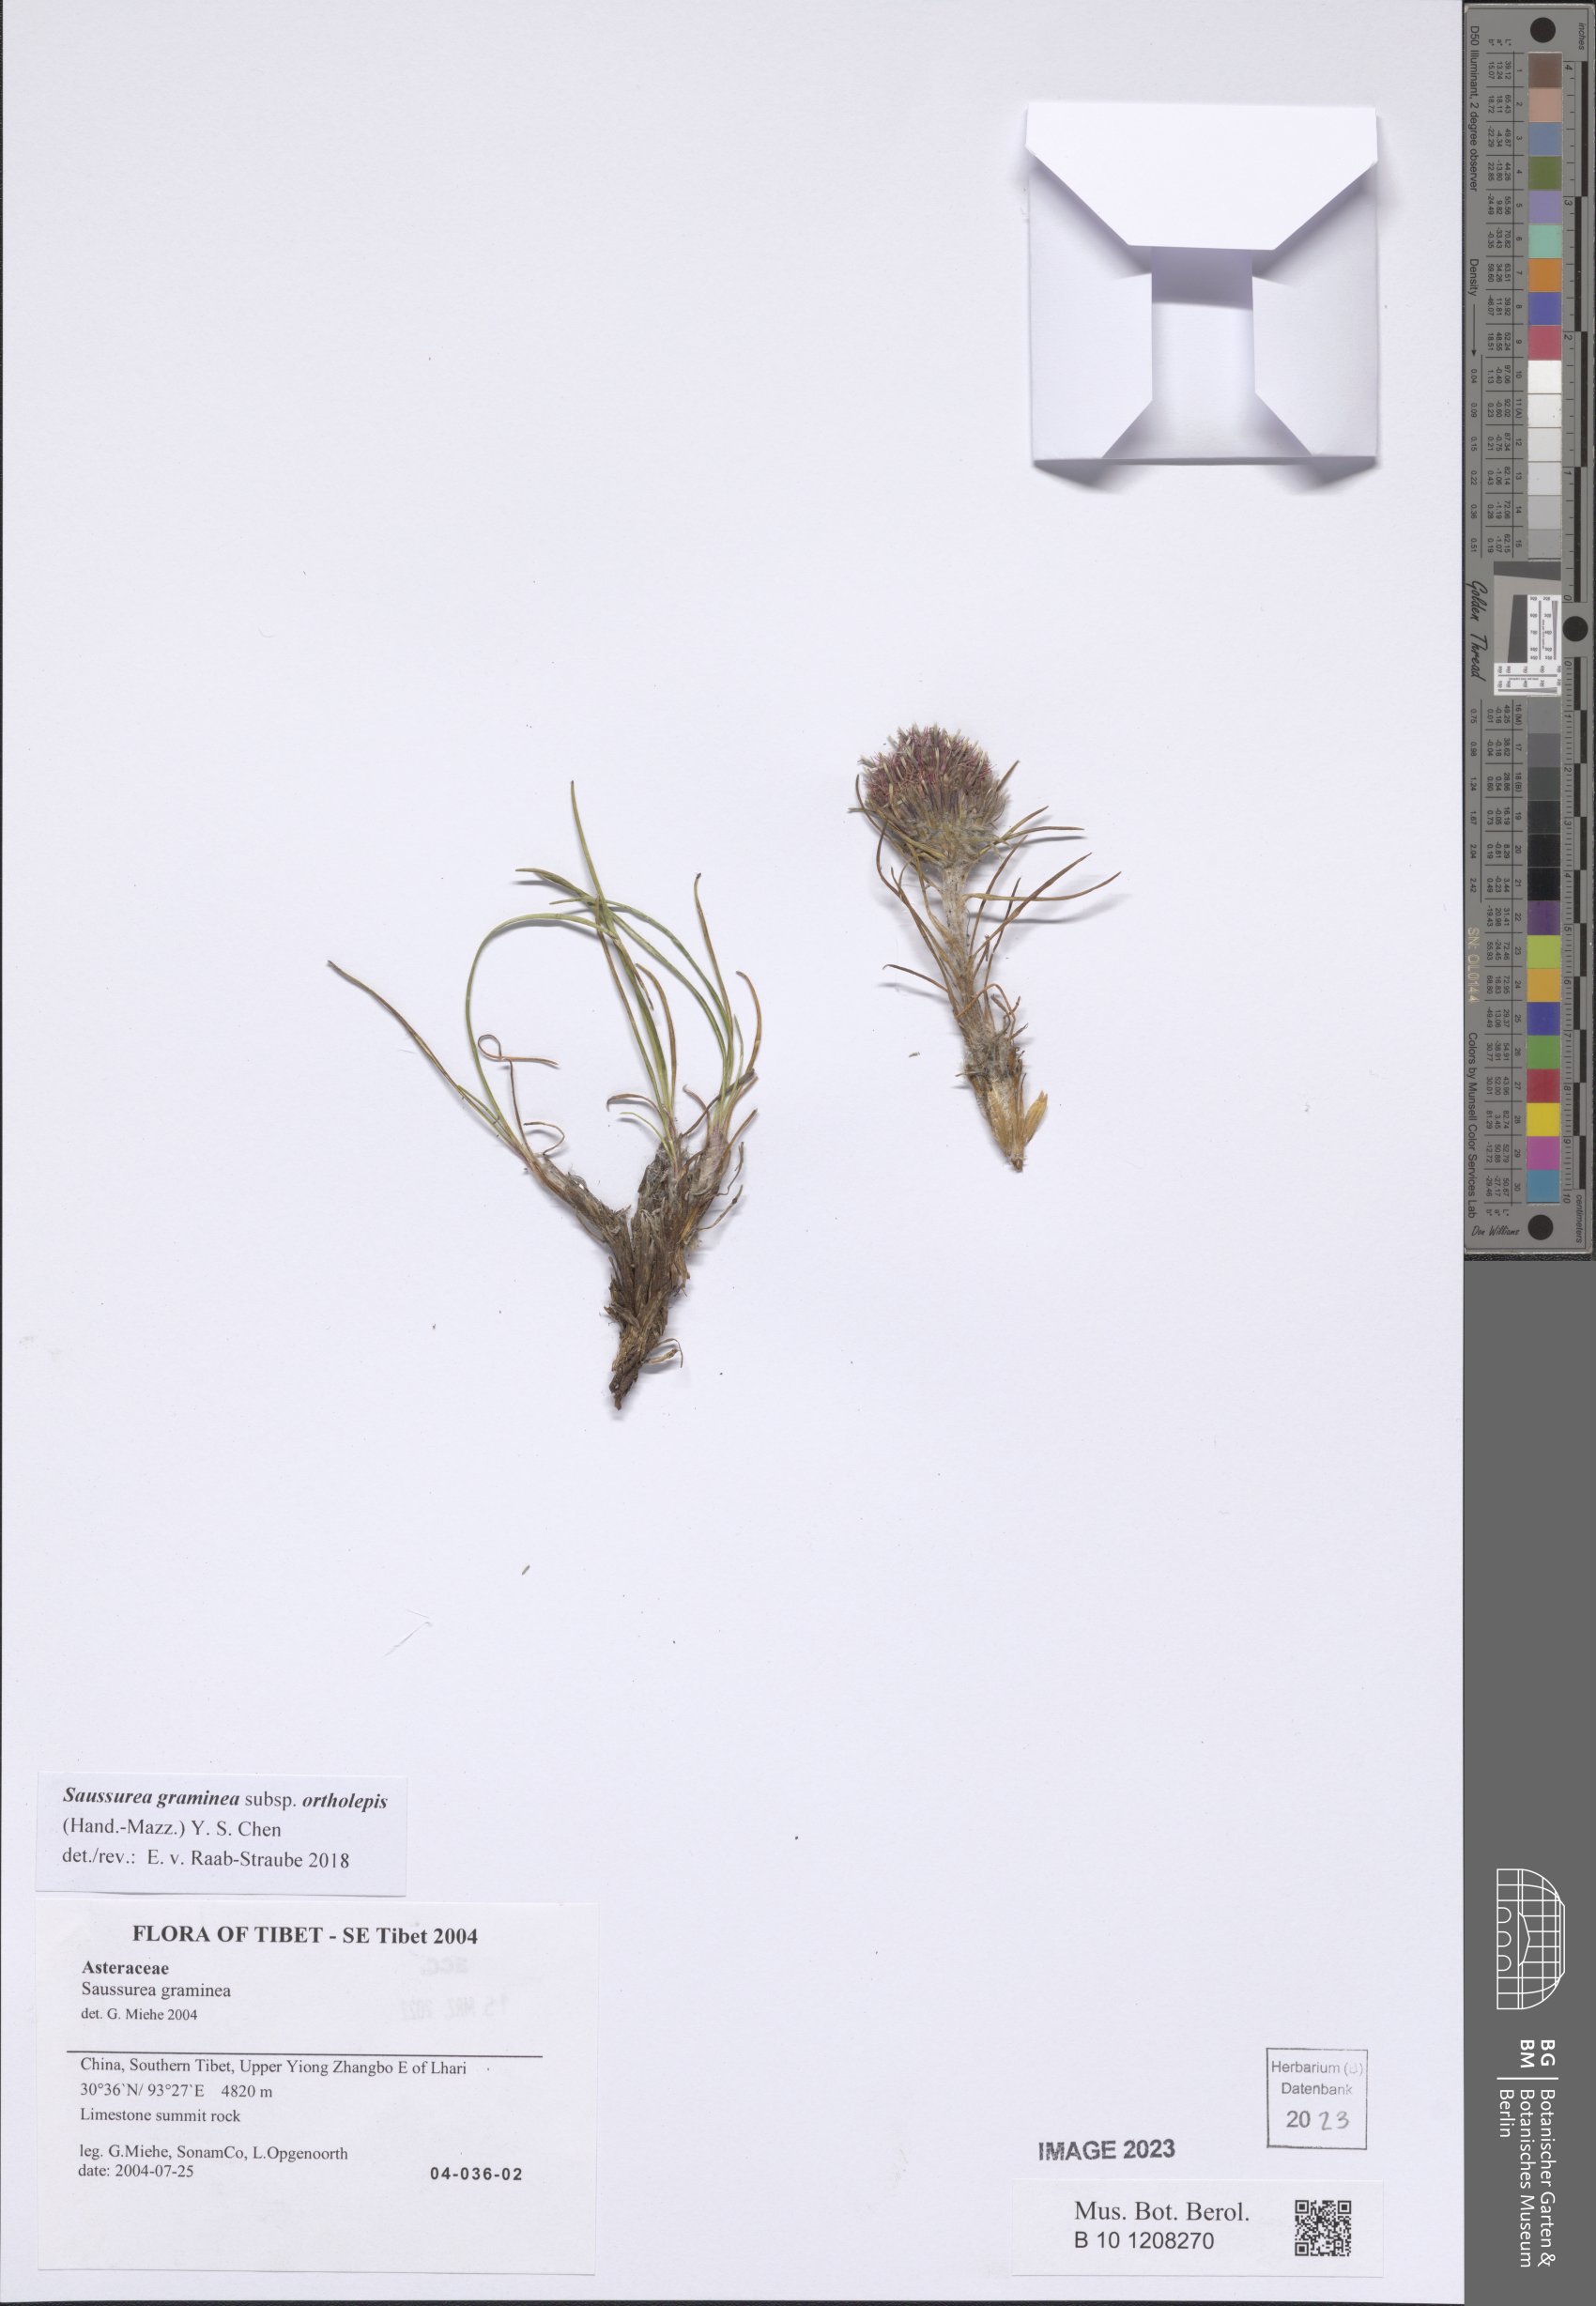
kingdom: Plantae
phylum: Tracheophyta
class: Magnoliopsida
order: Asterales
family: Asteraceae
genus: Saussurea
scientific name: Saussurea graminea
